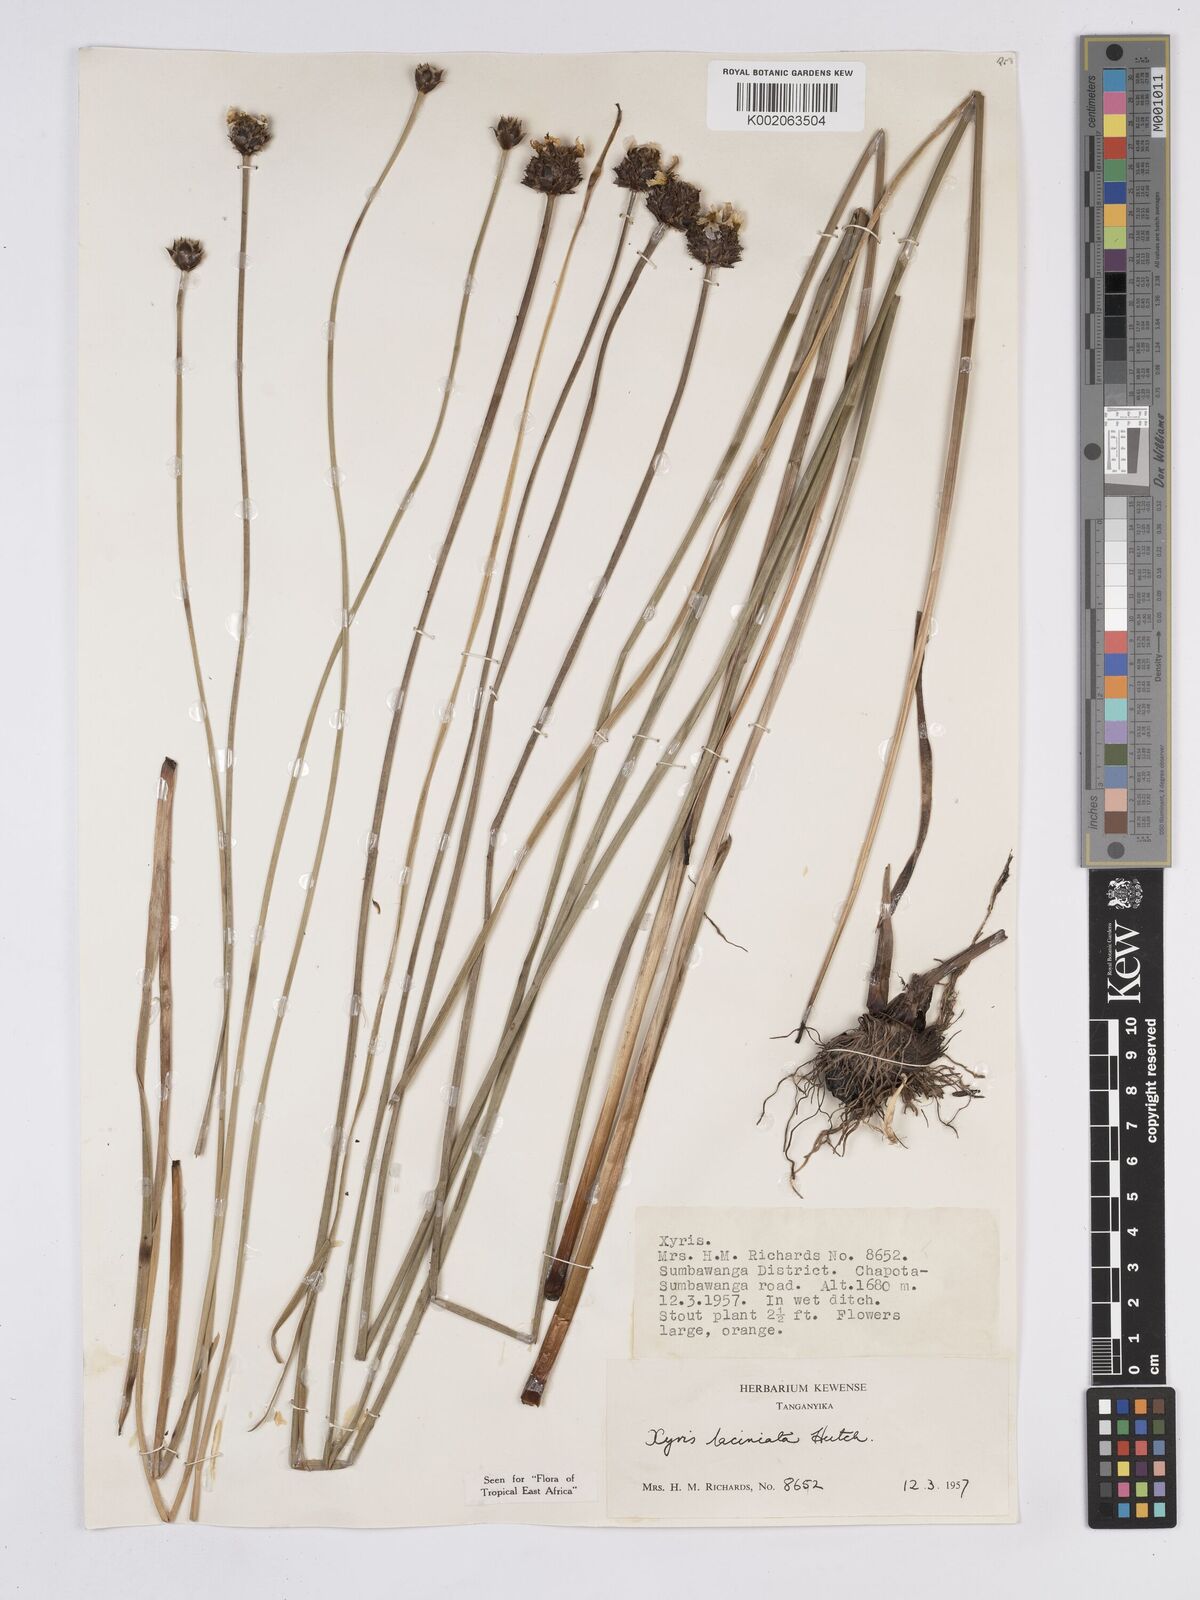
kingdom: Plantae
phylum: Tracheophyta
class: Liliopsida
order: Poales
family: Xyridaceae
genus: Xyris
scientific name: Xyris aristata
